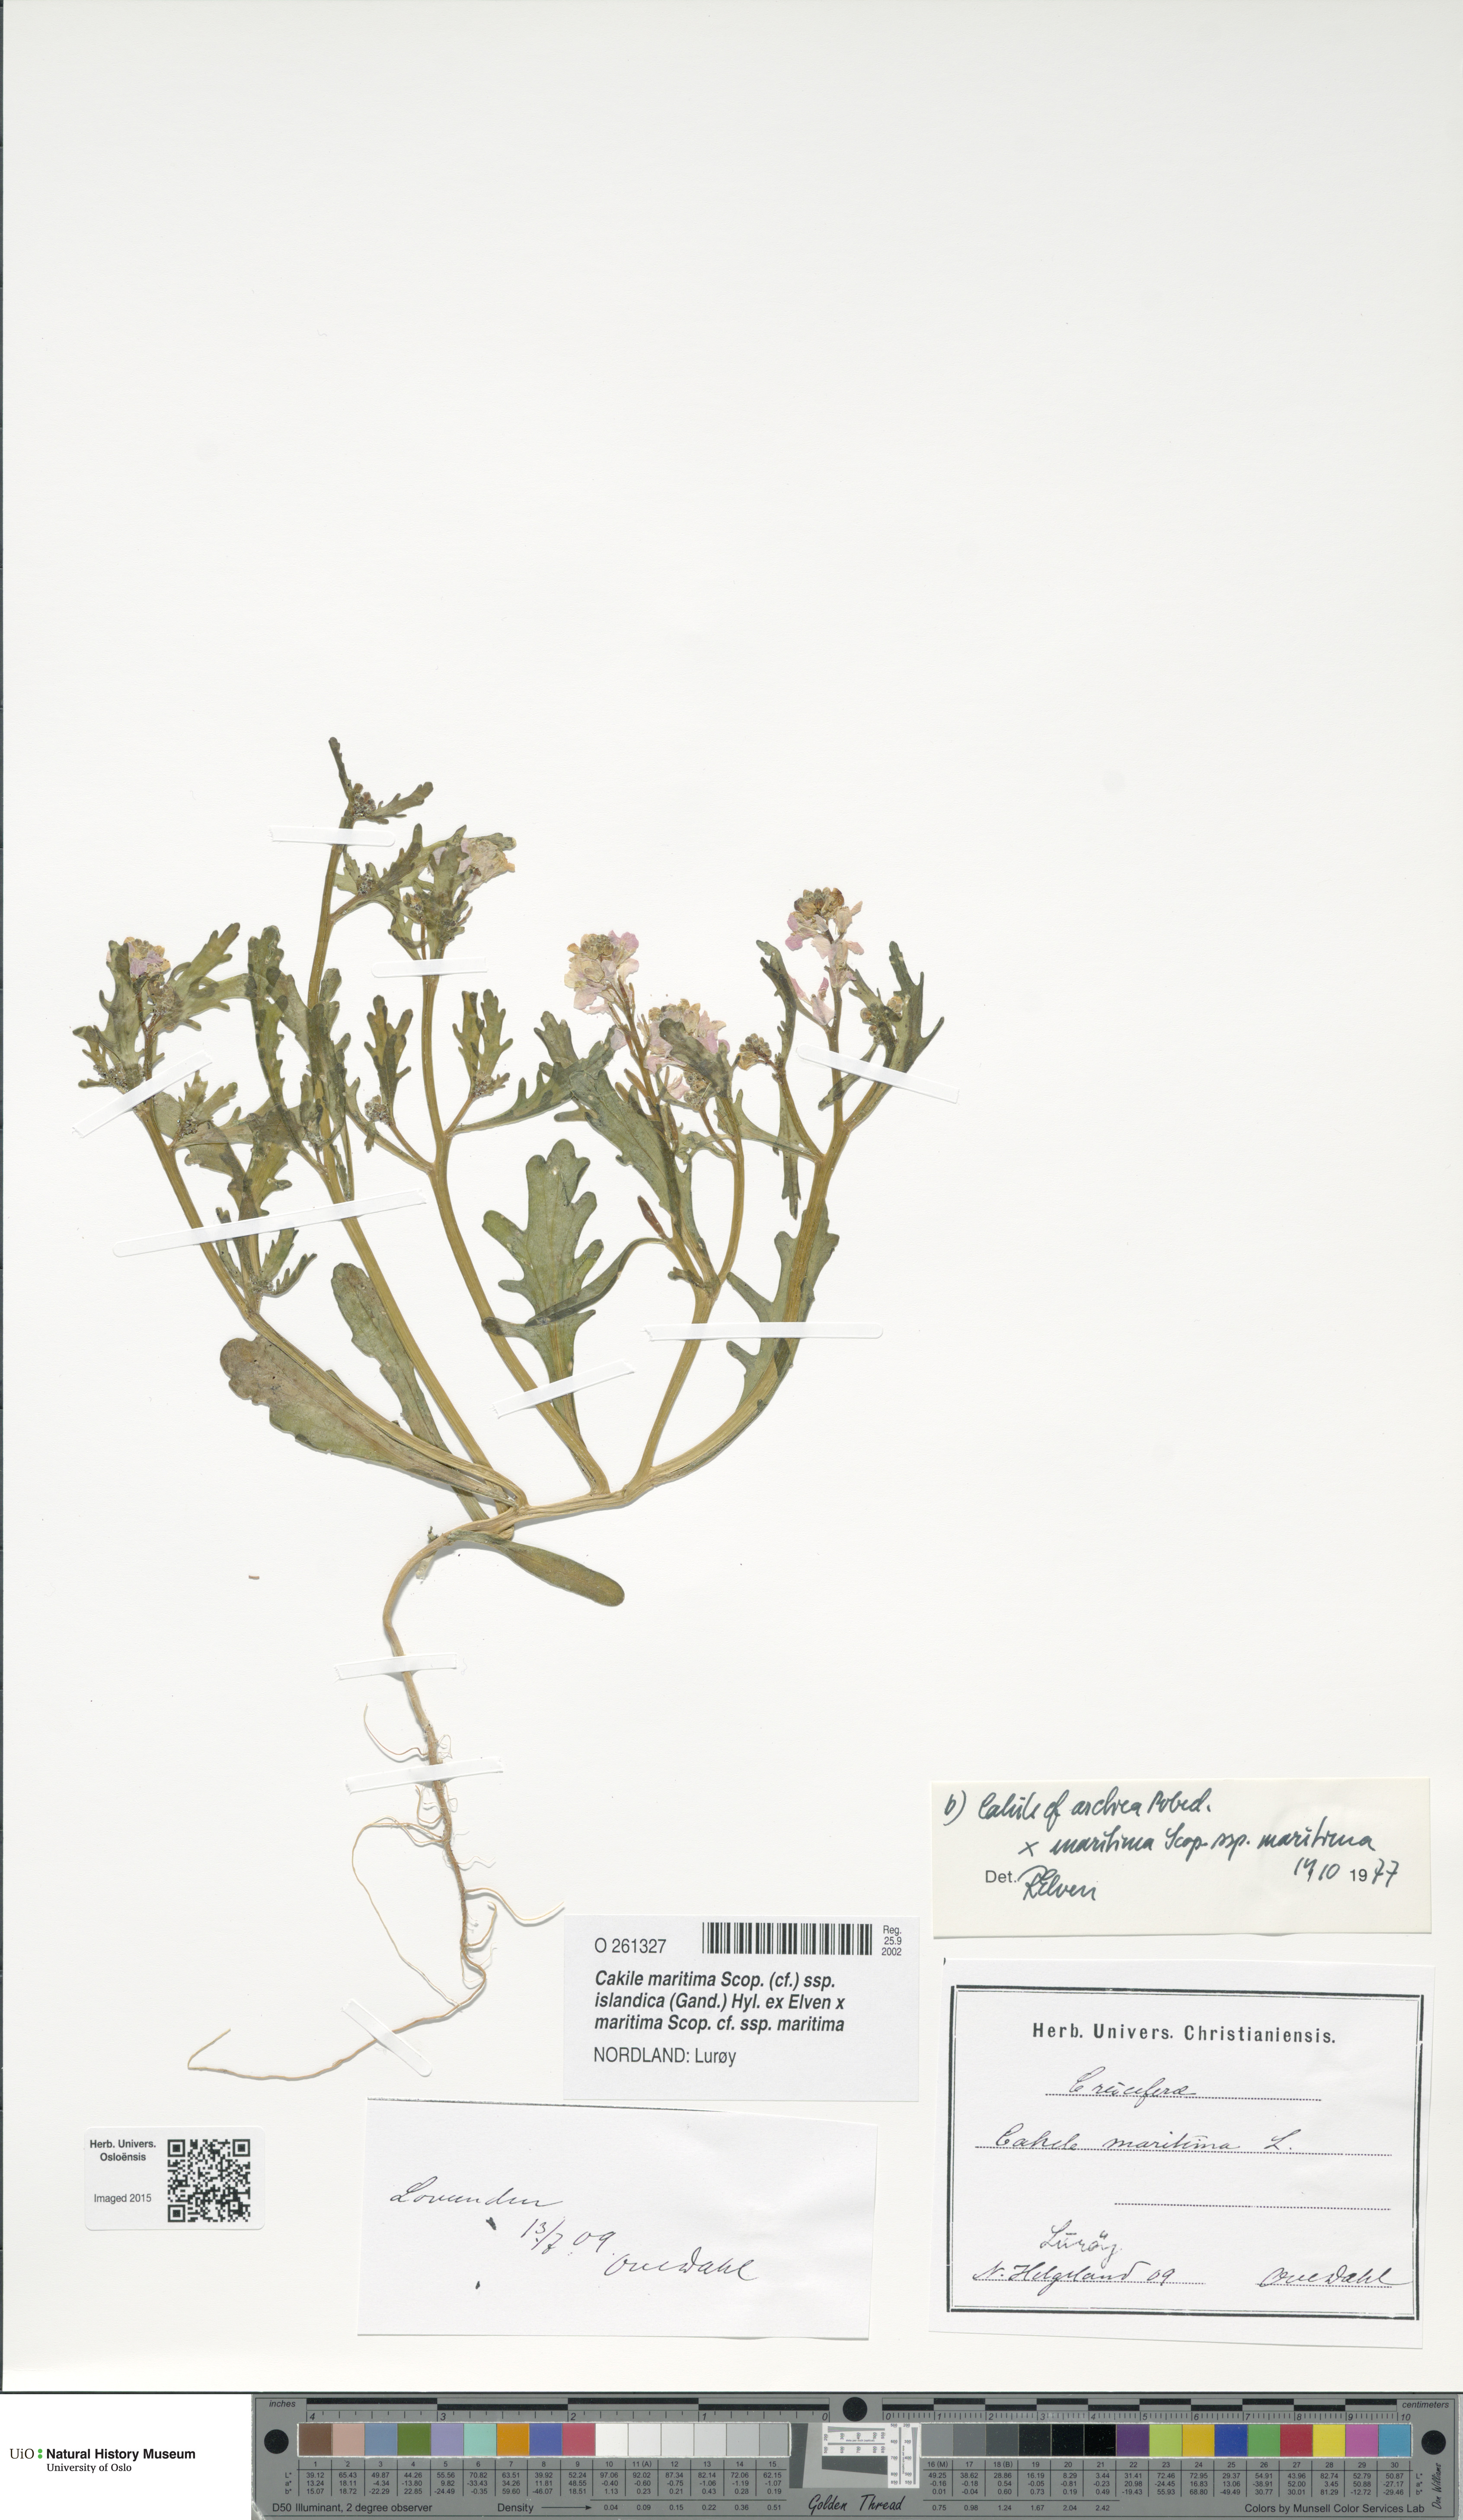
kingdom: Plantae
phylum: Tracheophyta
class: Magnoliopsida
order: Brassicales
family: Brassicaceae
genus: Cakile
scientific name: Cakile
